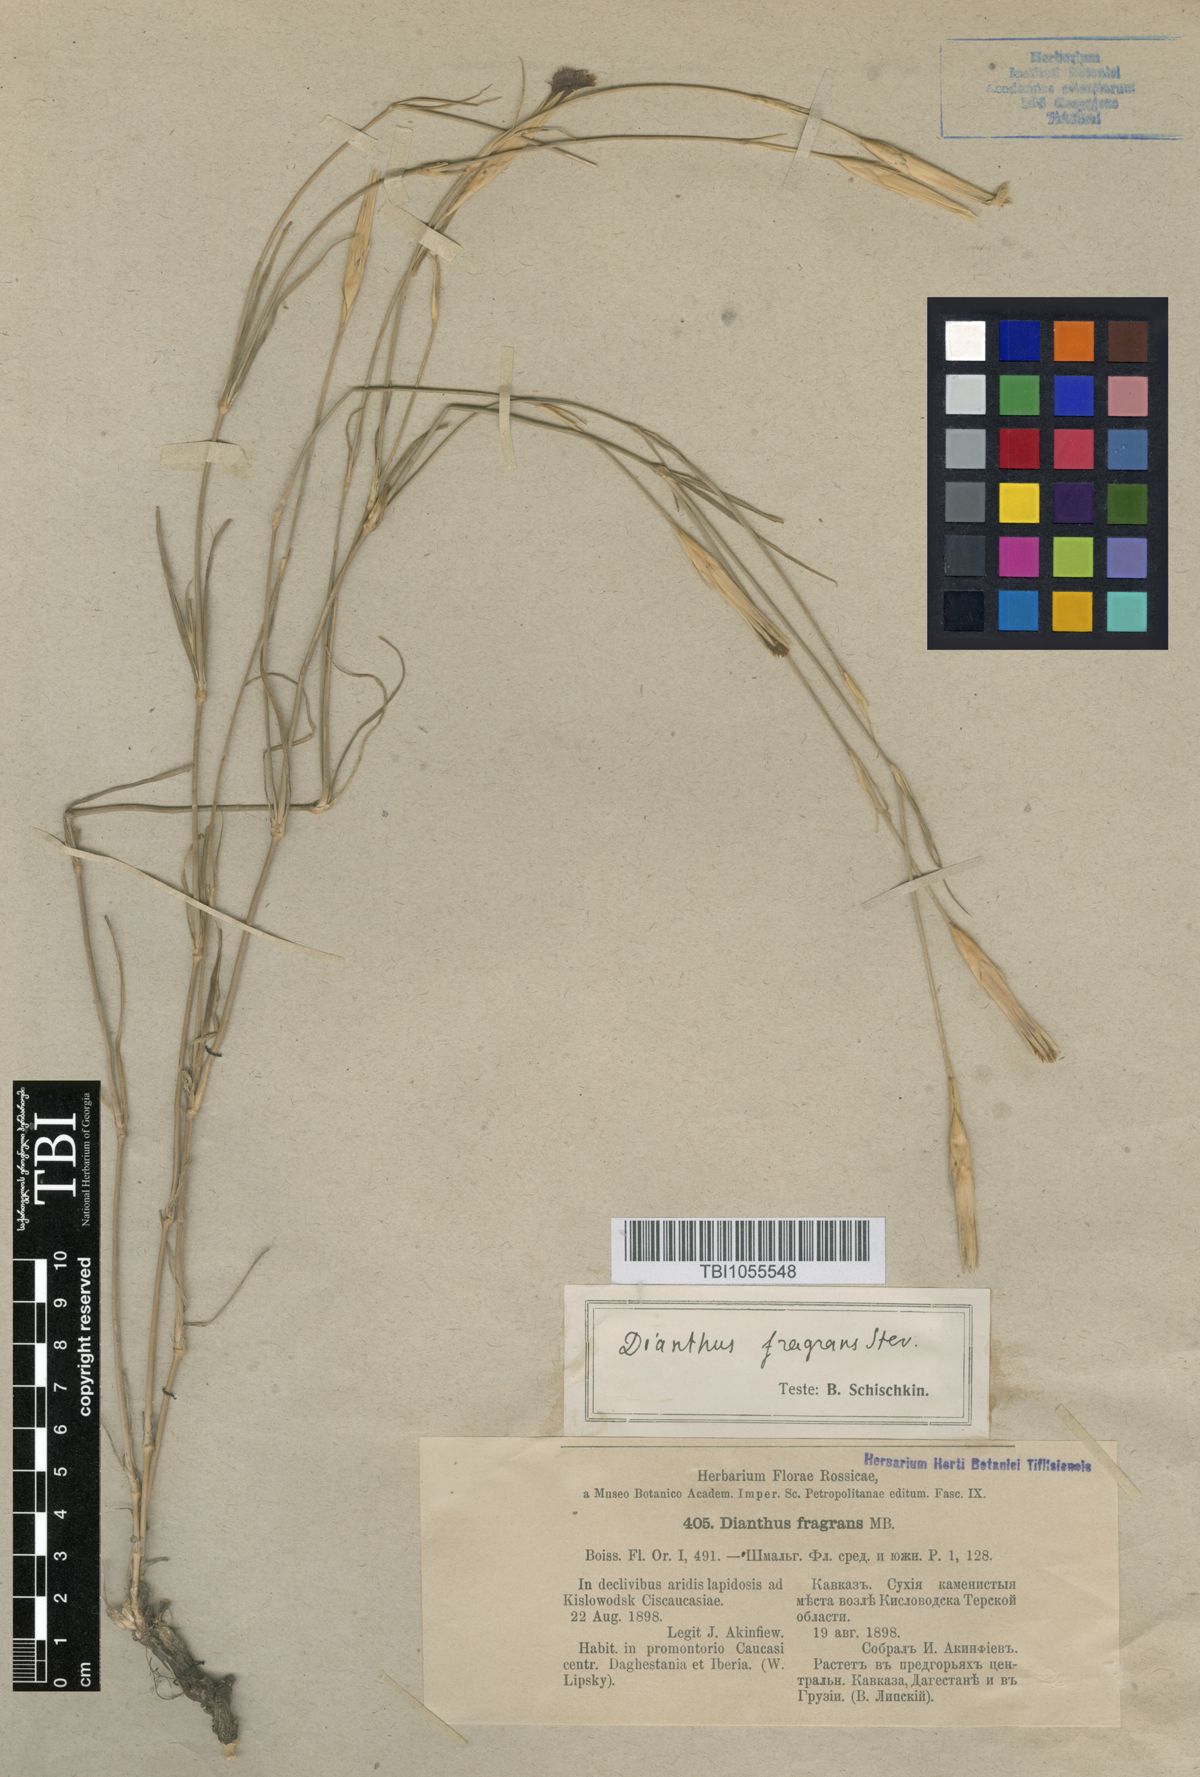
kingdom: Plantae
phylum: Tracheophyta
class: Magnoliopsida
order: Caryophyllales
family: Caryophyllaceae
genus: Dianthus
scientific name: Dianthus
